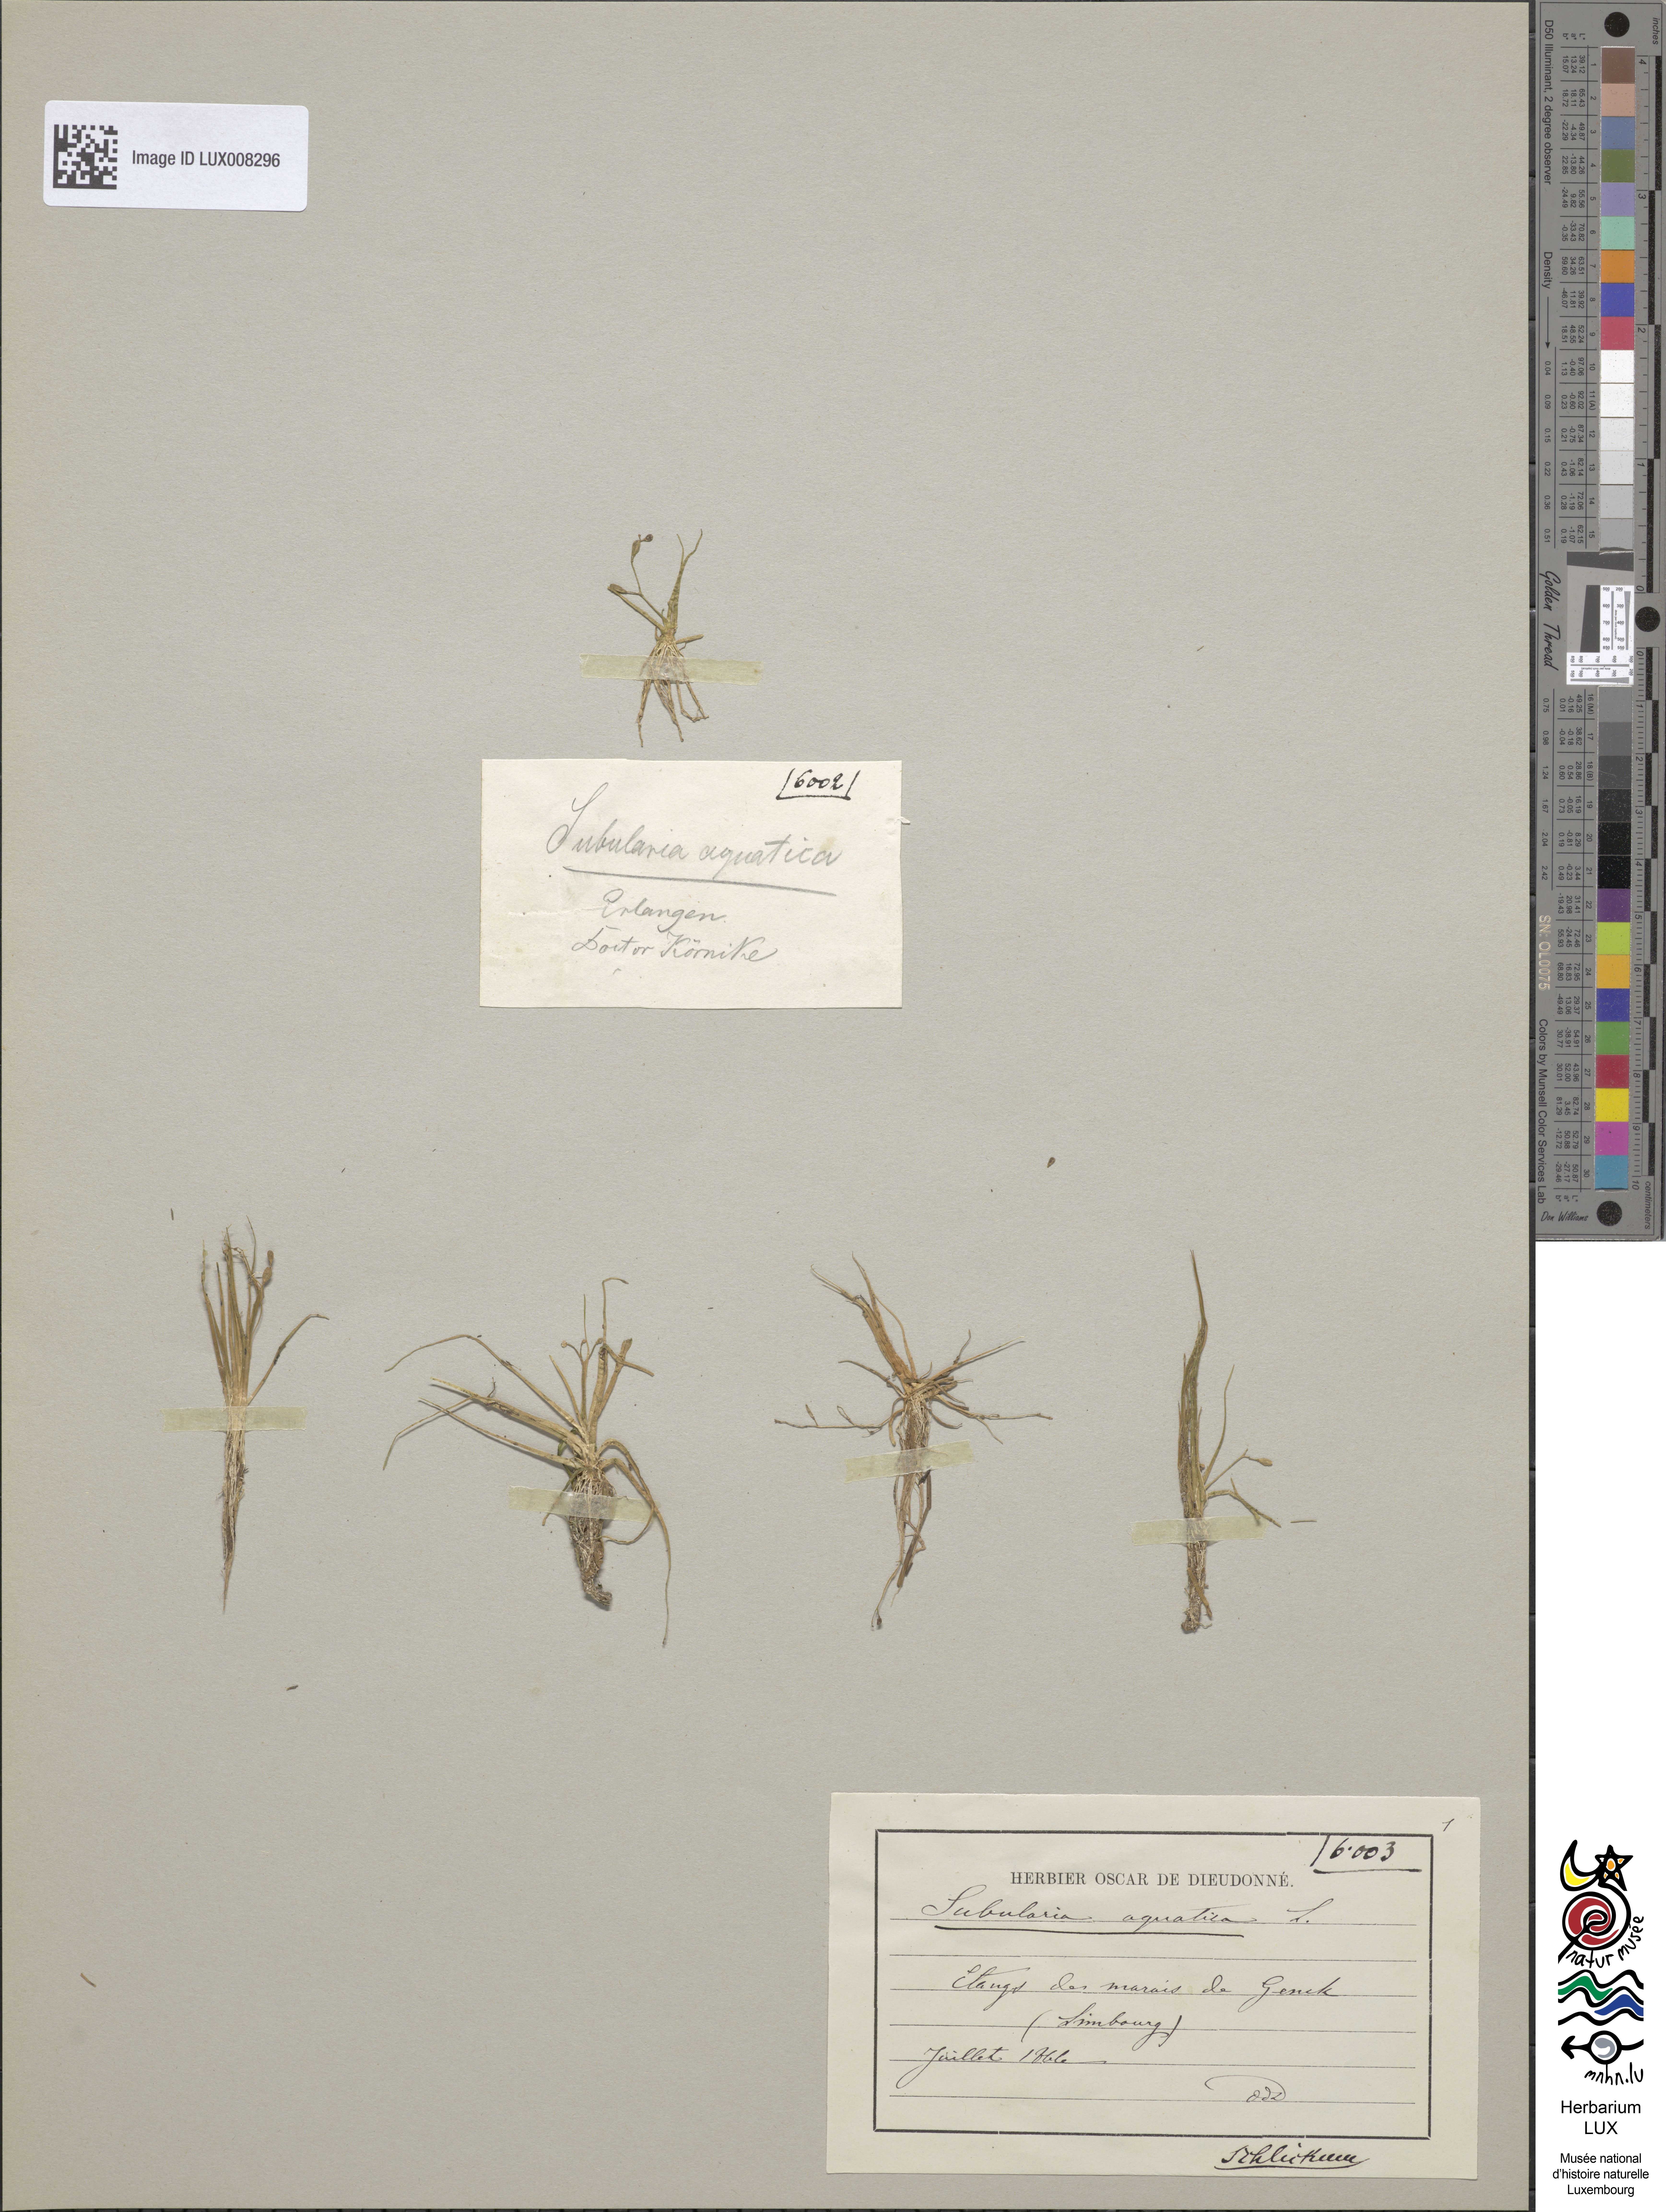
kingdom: Plantae
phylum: Tracheophyta
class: Magnoliopsida
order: Brassicales
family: Brassicaceae
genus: Subularia
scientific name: Subularia aquatica
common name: Awlwort
